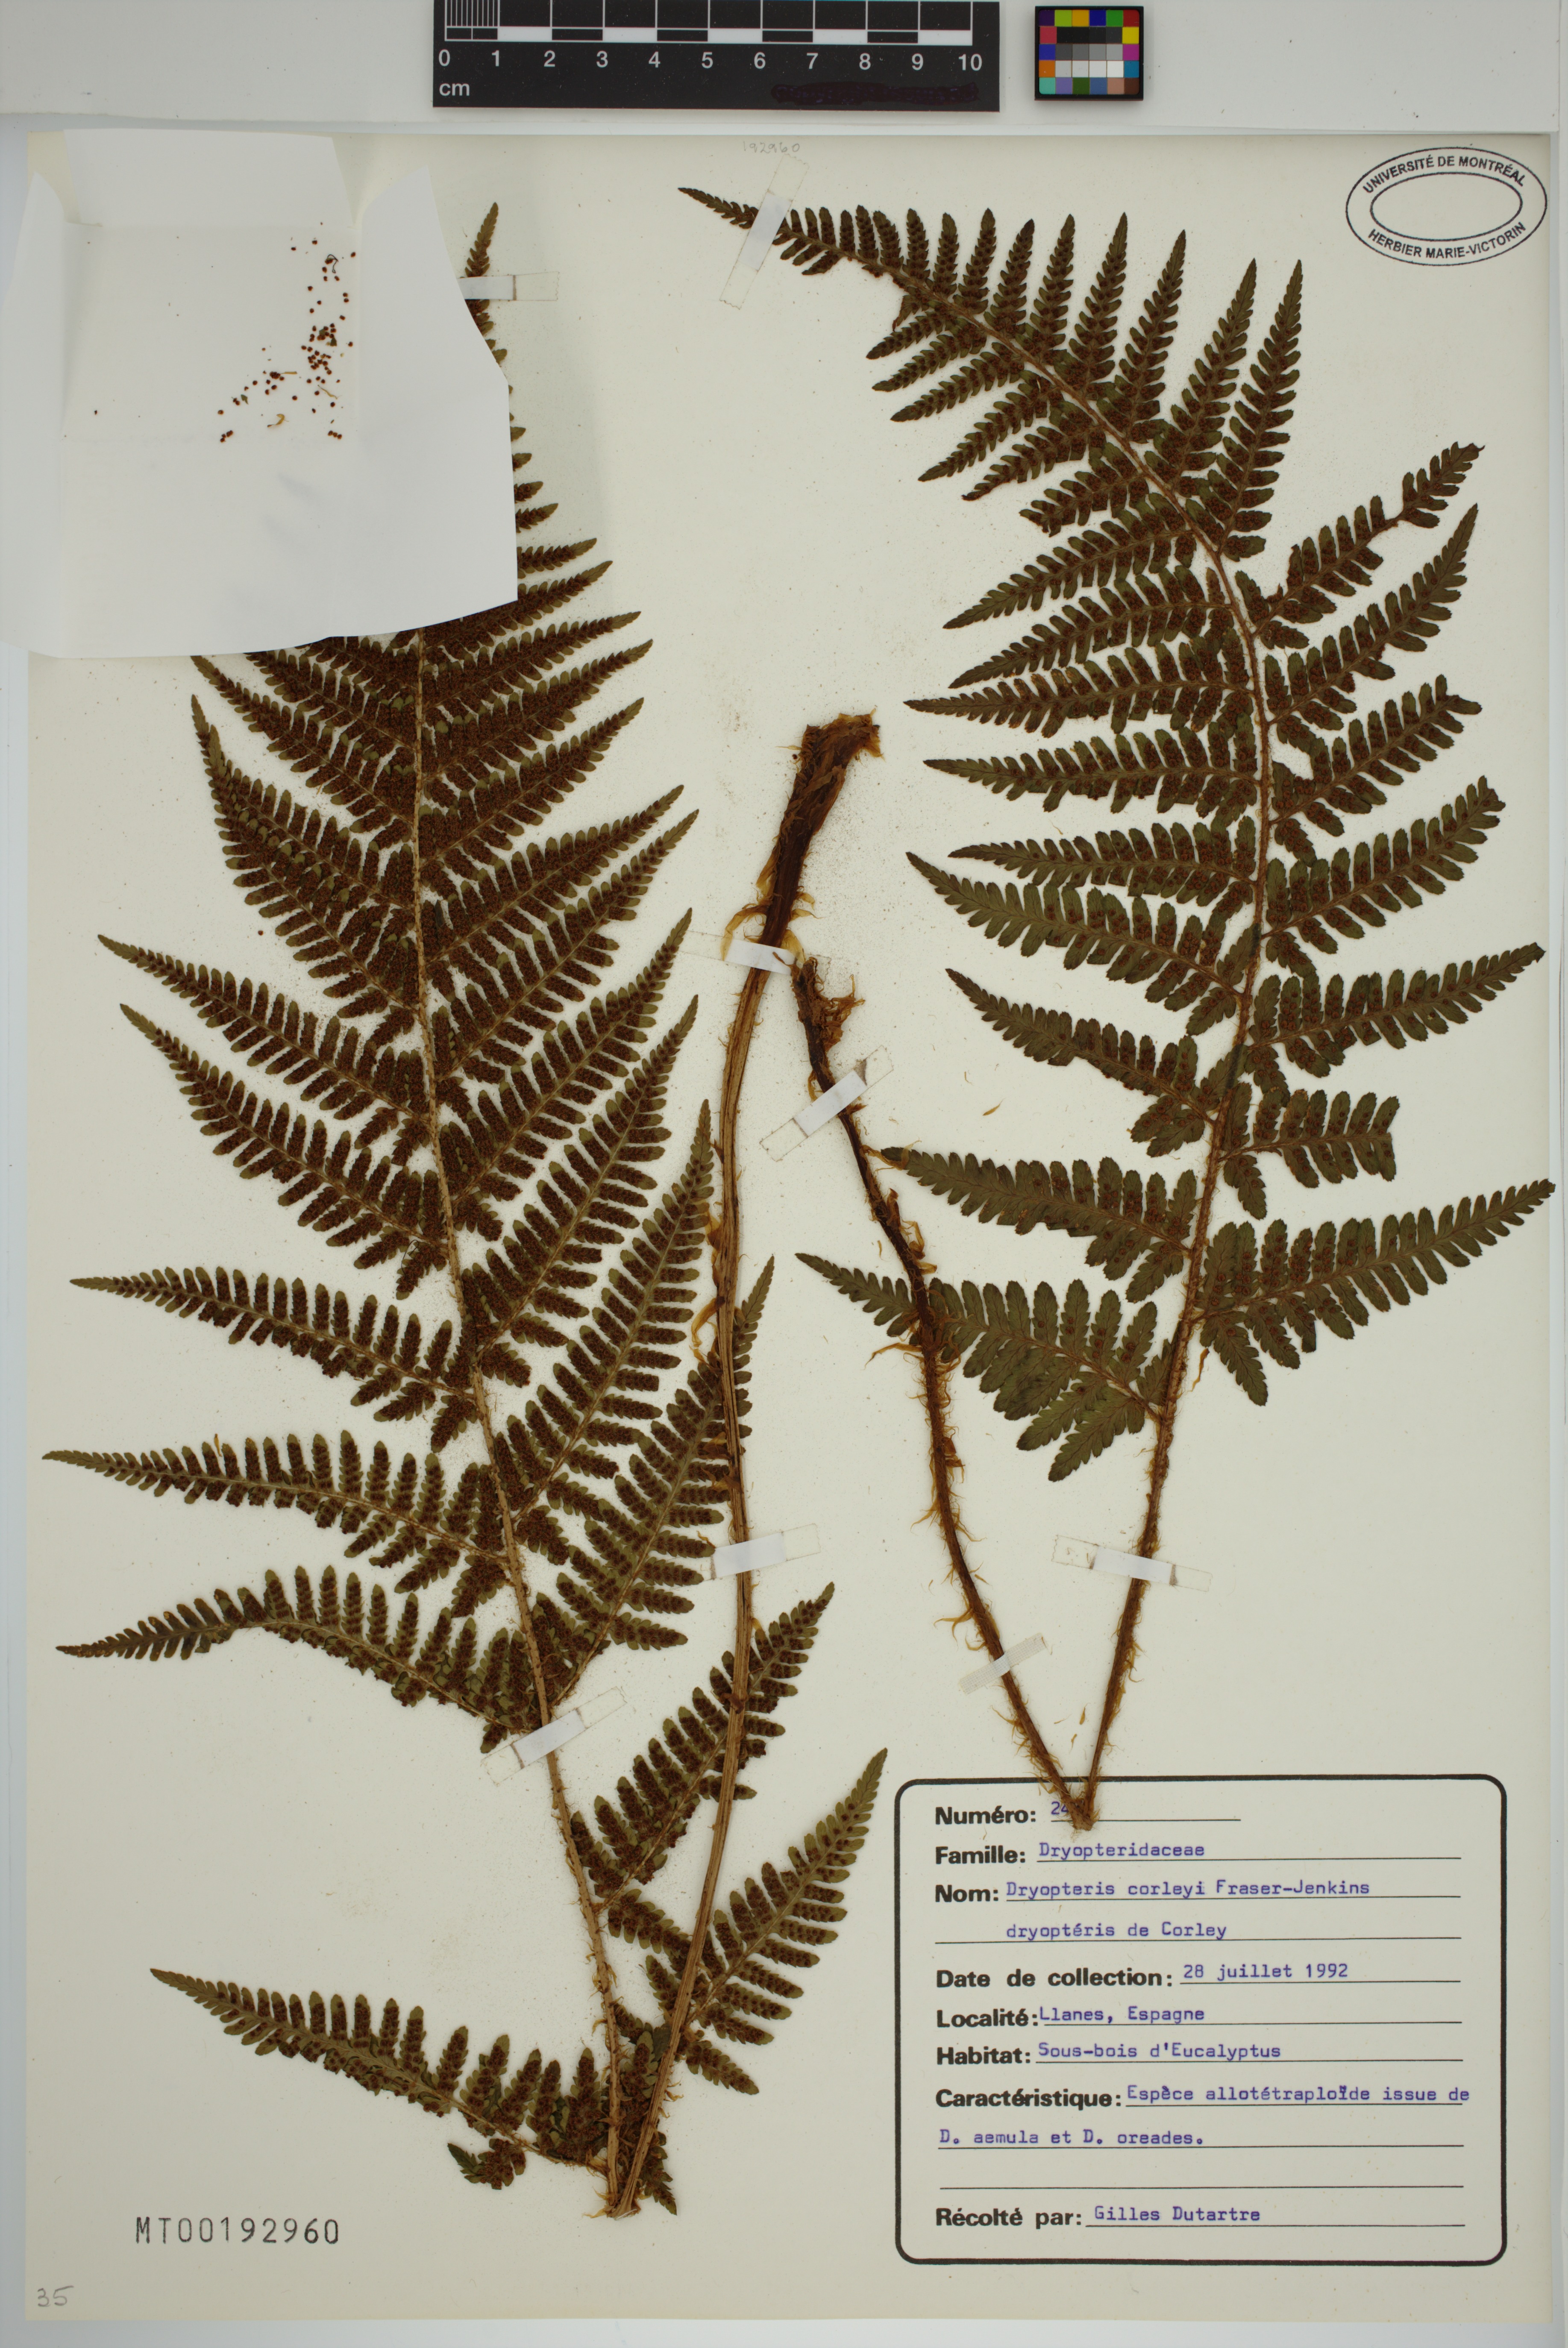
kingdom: Plantae
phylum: Tracheophyta
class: Polypodiopsida
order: Polypodiales
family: Dryopteridaceae
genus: Dryopteris
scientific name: Dryopteris corleyi
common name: Costa verde male-fern
